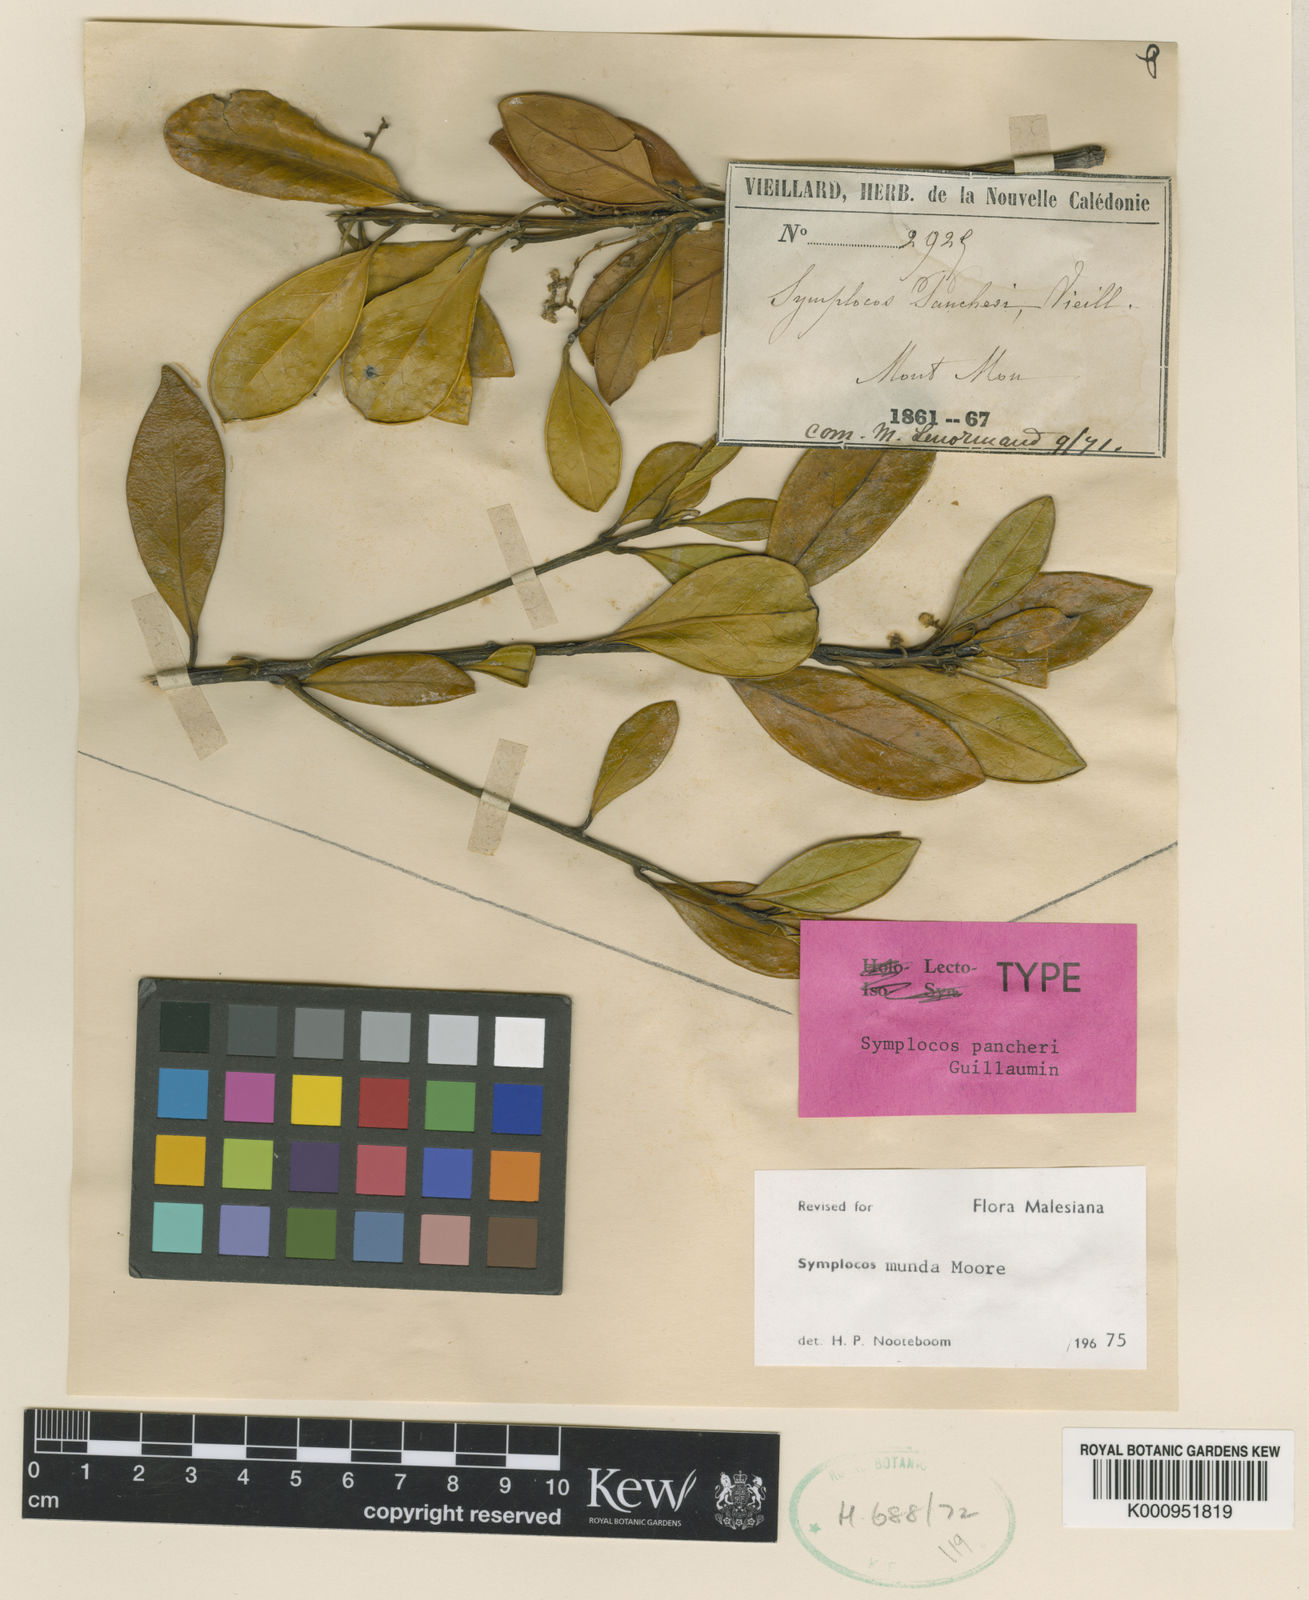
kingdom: Plantae
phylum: Tracheophyta
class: Magnoliopsida
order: Ericales
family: Symplocaceae
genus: Symplocos
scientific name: Symplocos montana
